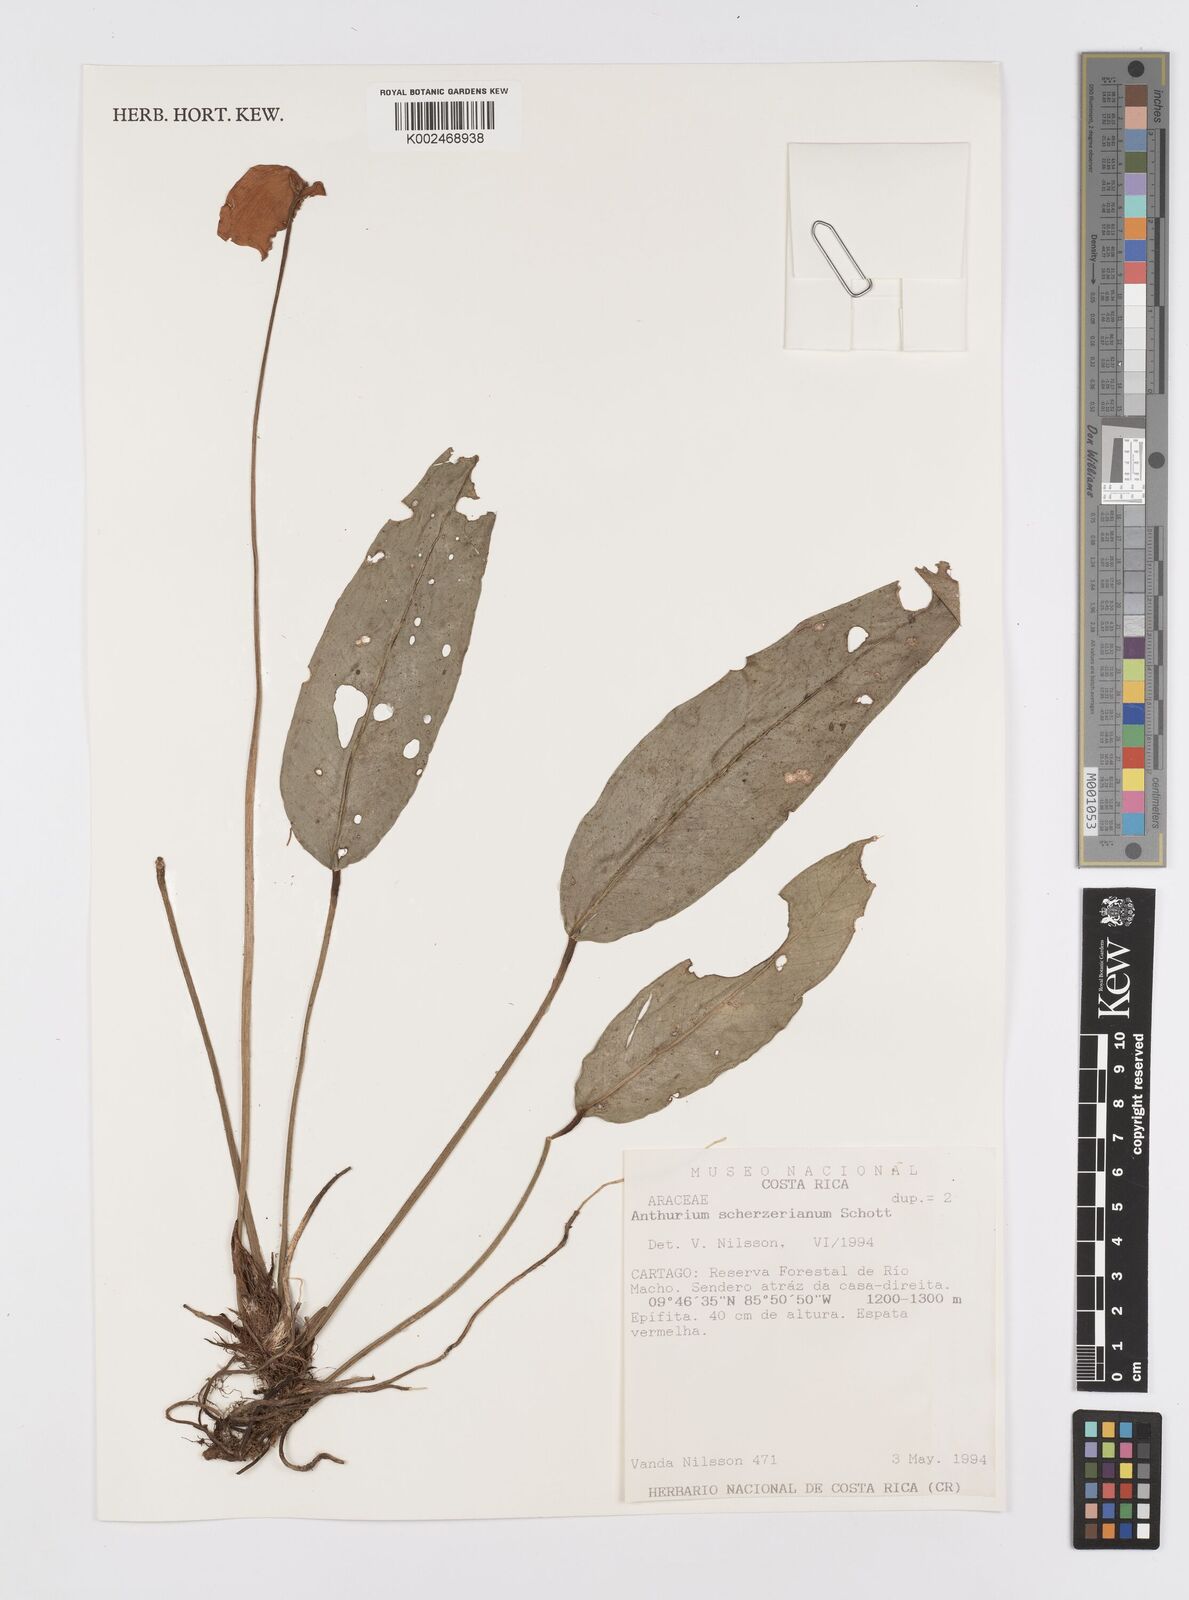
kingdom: Plantae
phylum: Tracheophyta
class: Liliopsida
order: Alismatales
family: Araceae
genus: Anthurium
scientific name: Anthurium scherzerianum
